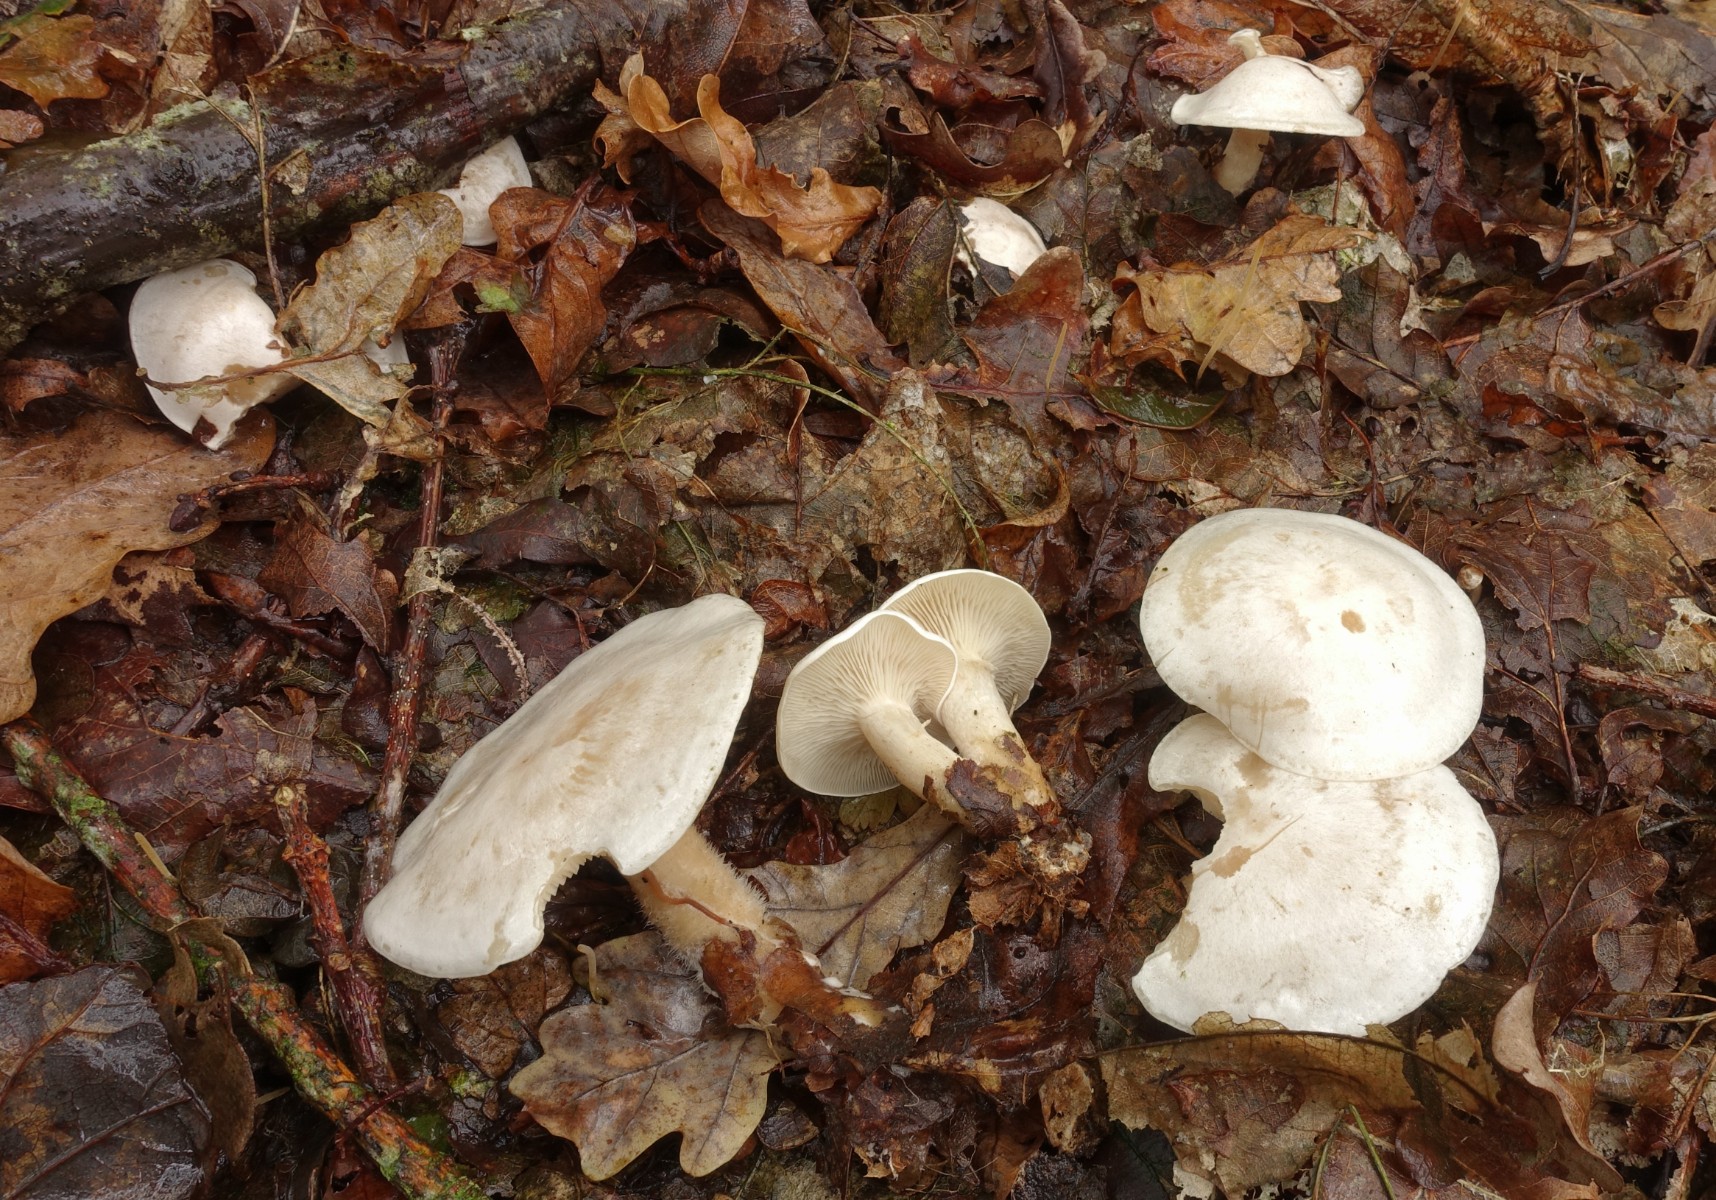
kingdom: Fungi
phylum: Basidiomycota
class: Agaricomycetes
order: Agaricales
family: Tricholomataceae
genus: Clitocybe
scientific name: Clitocybe phyllophila
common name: løv-tragthat
